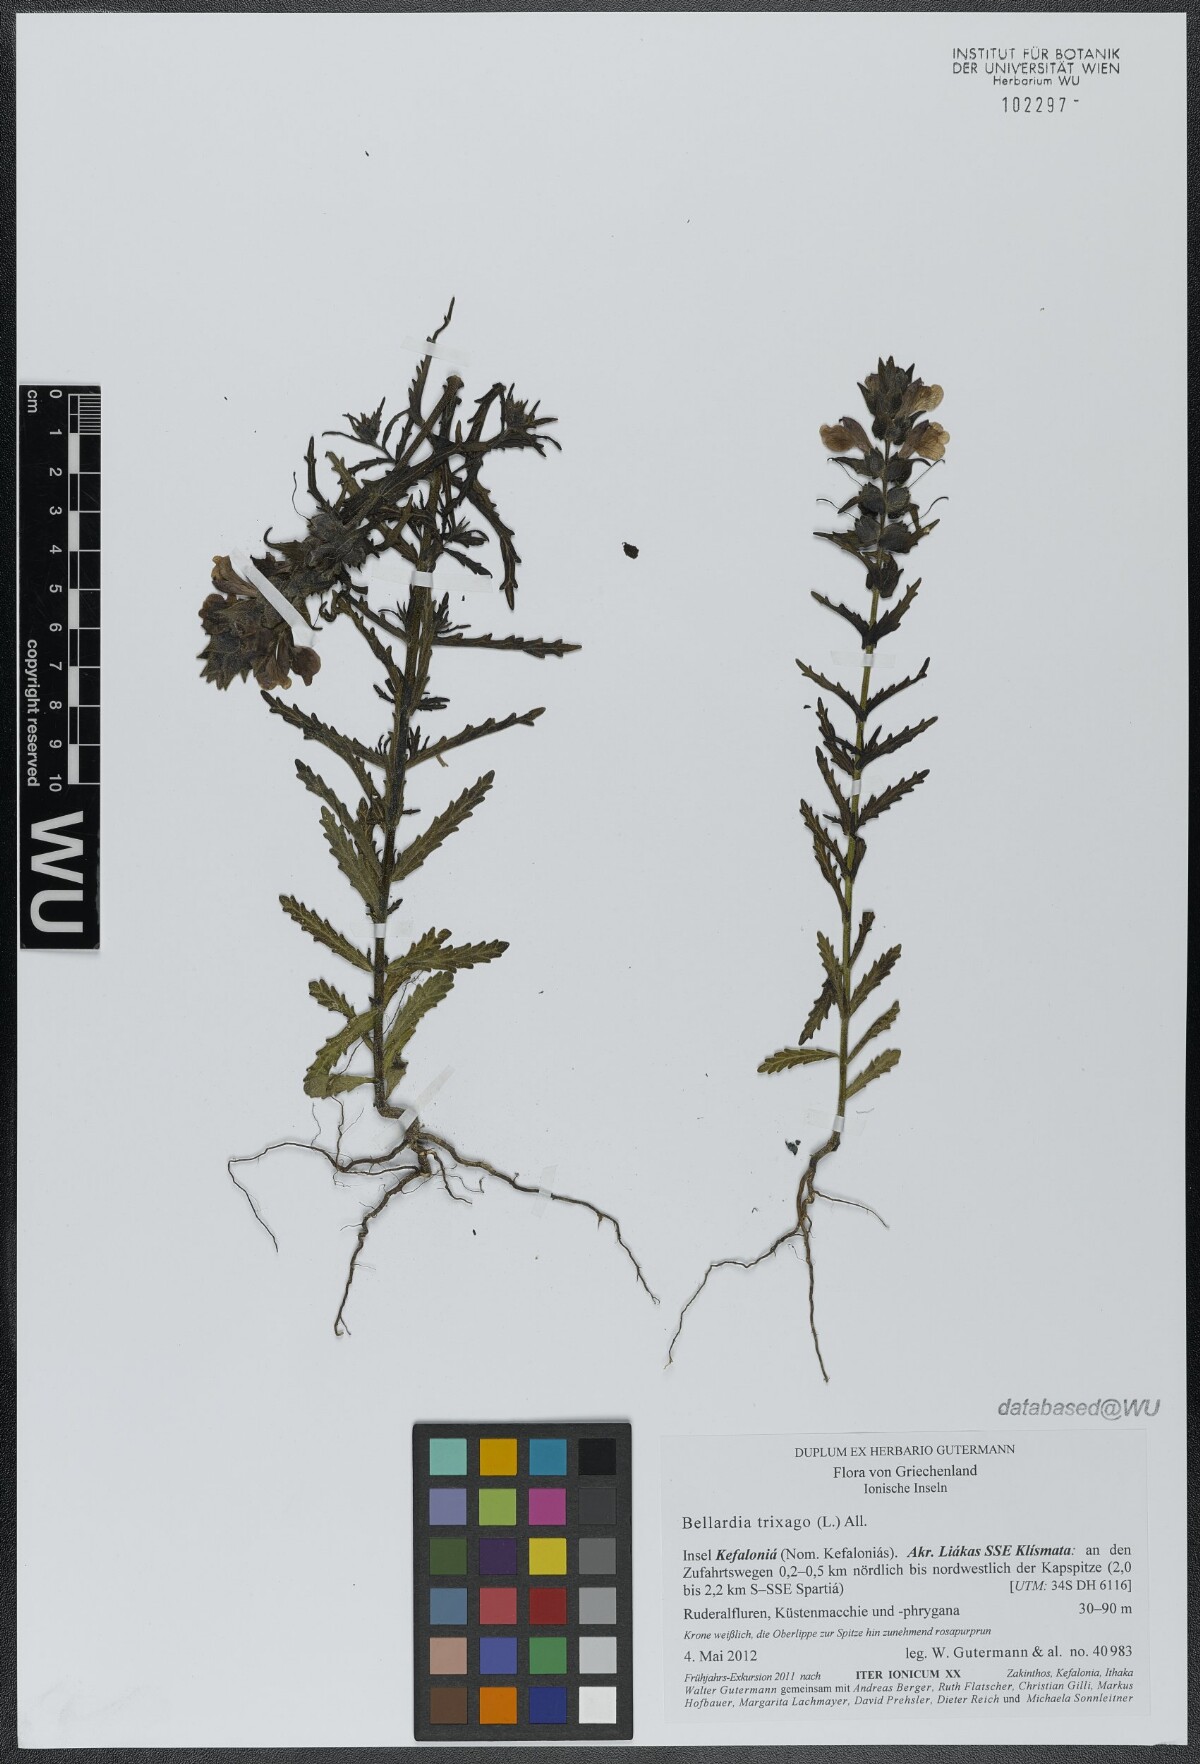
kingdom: Plantae
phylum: Tracheophyta
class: Magnoliopsida
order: Lamiales
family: Orobanchaceae
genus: Bellardia
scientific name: Bellardia trixago
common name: Mediterranean lineseed
